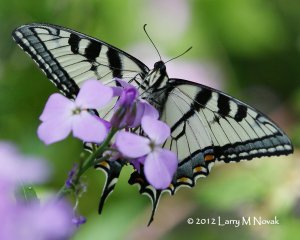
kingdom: Animalia
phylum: Arthropoda
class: Insecta
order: Lepidoptera
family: Papilionidae
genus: Pterourus
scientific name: Pterourus canadensis
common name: Canadian Tiger Swallowtail
